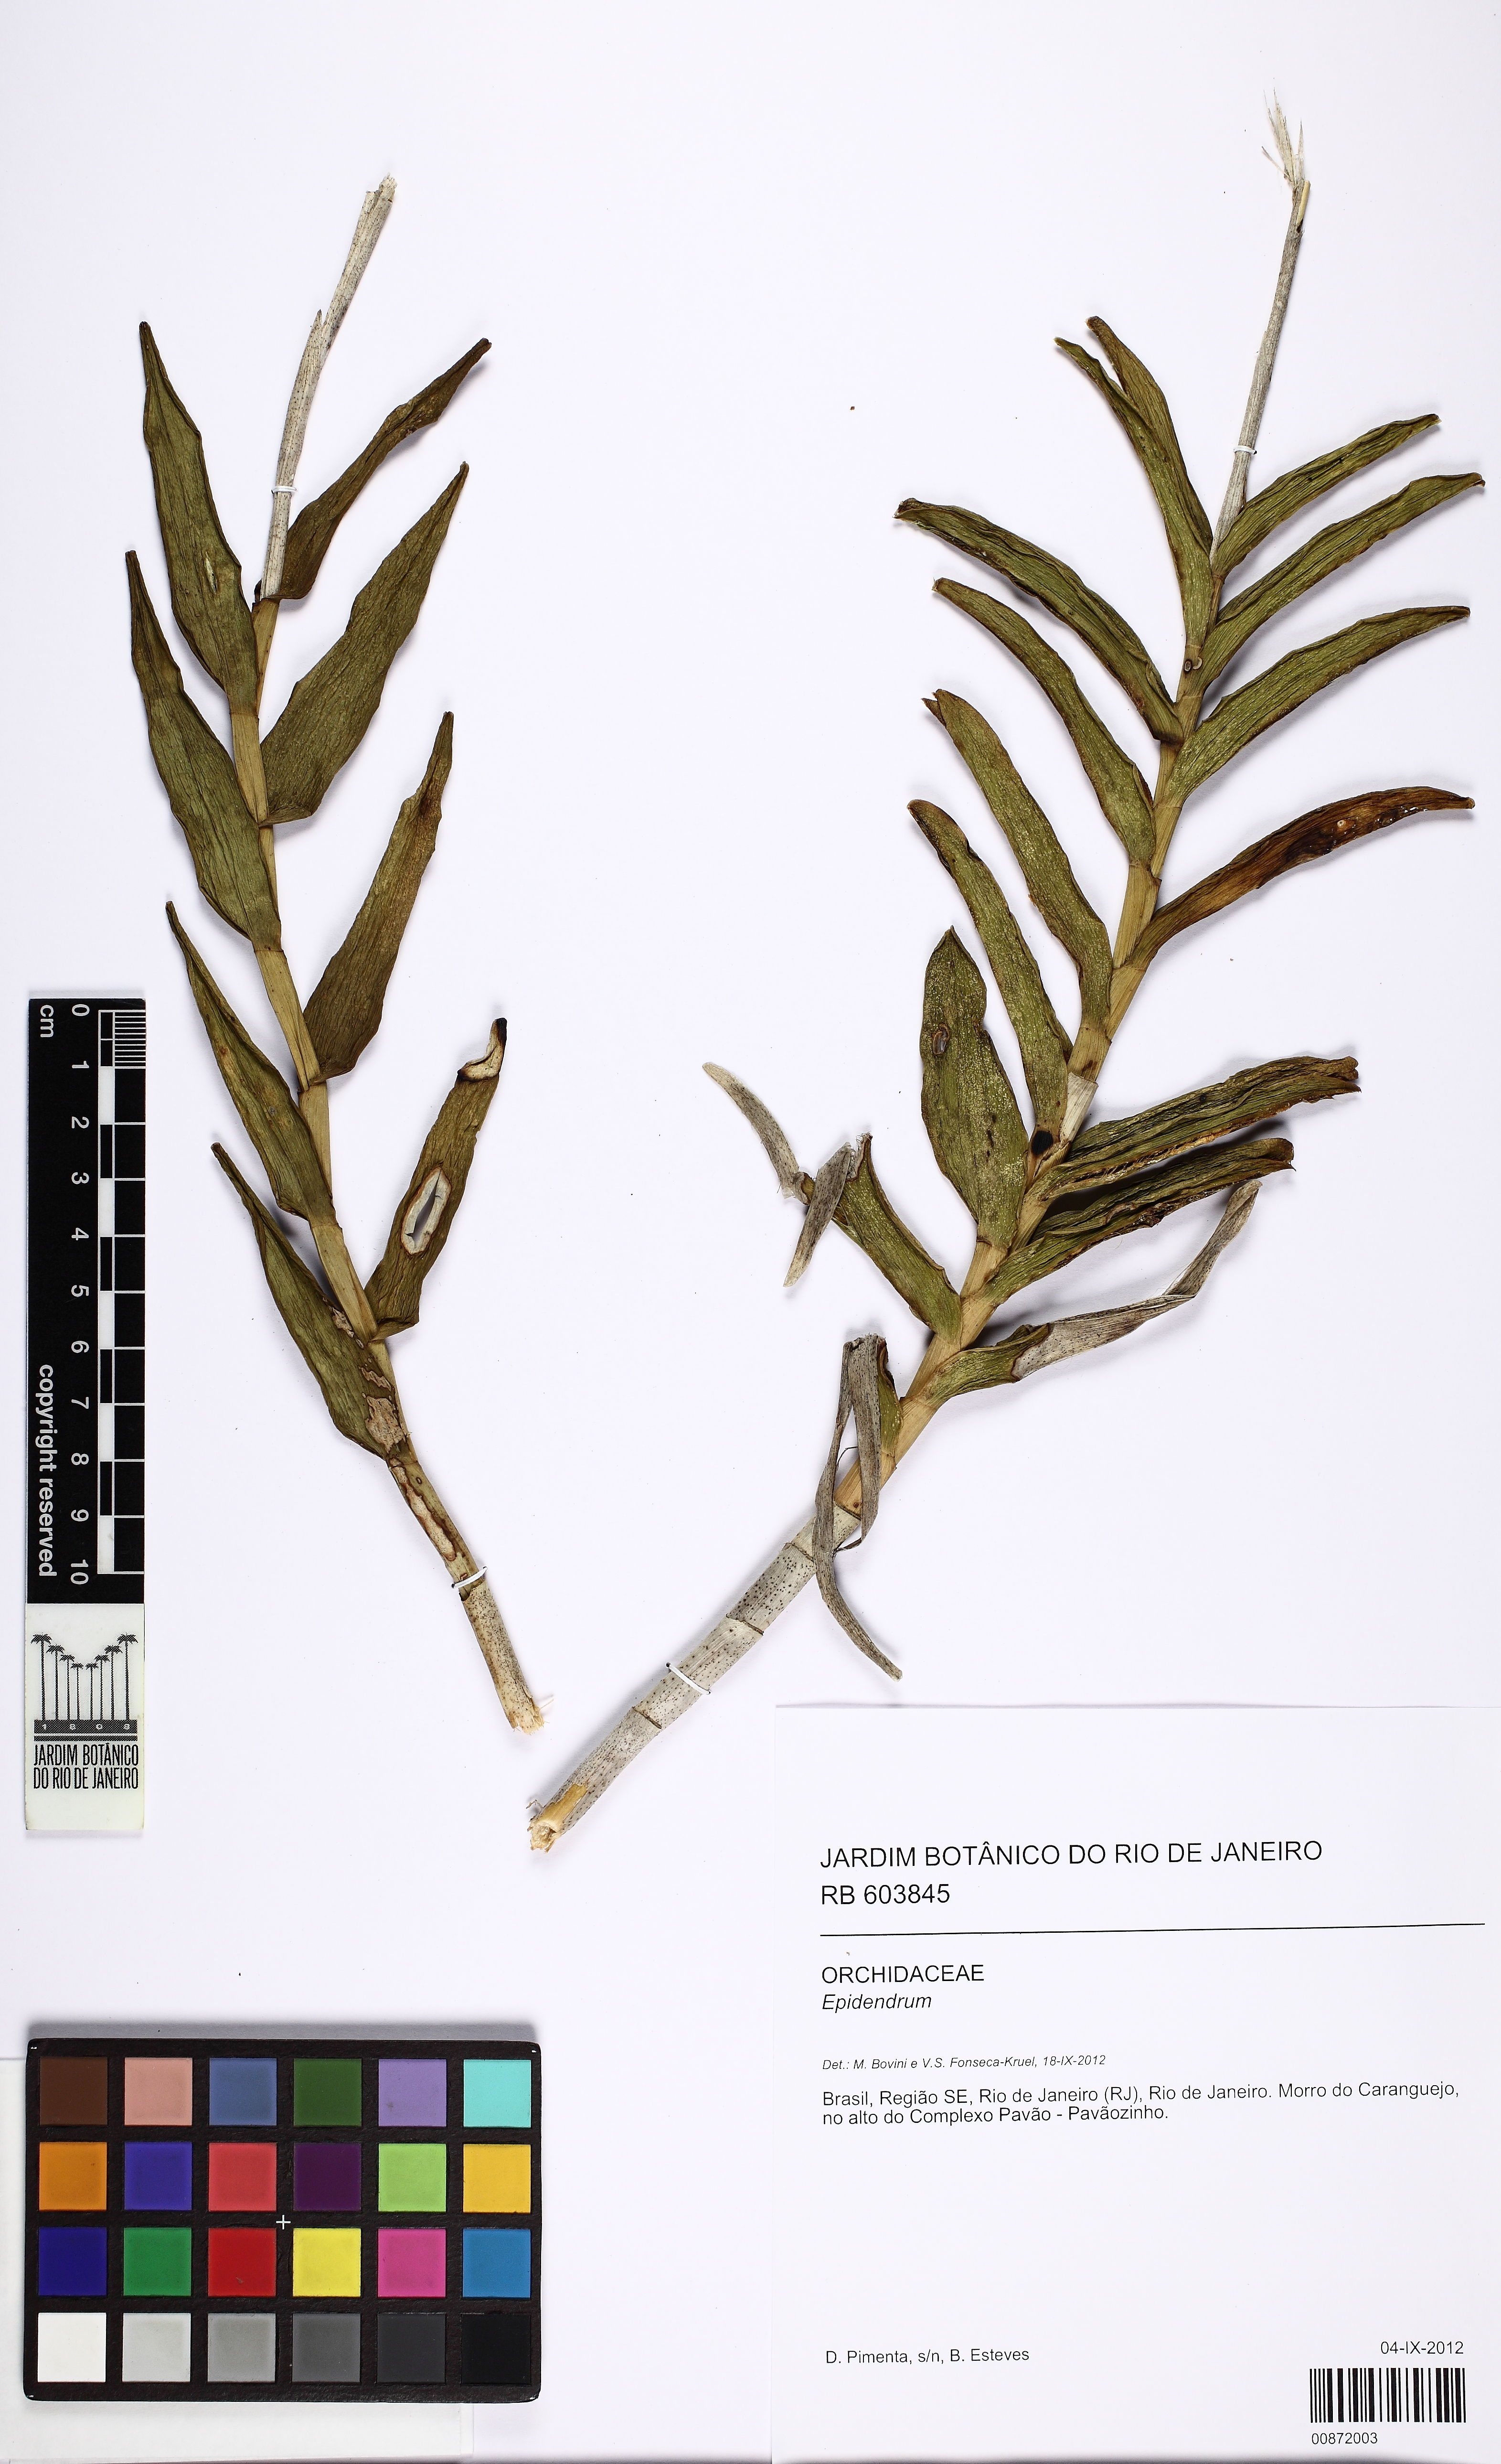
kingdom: Plantae
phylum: Tracheophyta
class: Liliopsida
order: Asparagales
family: Orchidaceae
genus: Epidendrum
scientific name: Epidendrum
